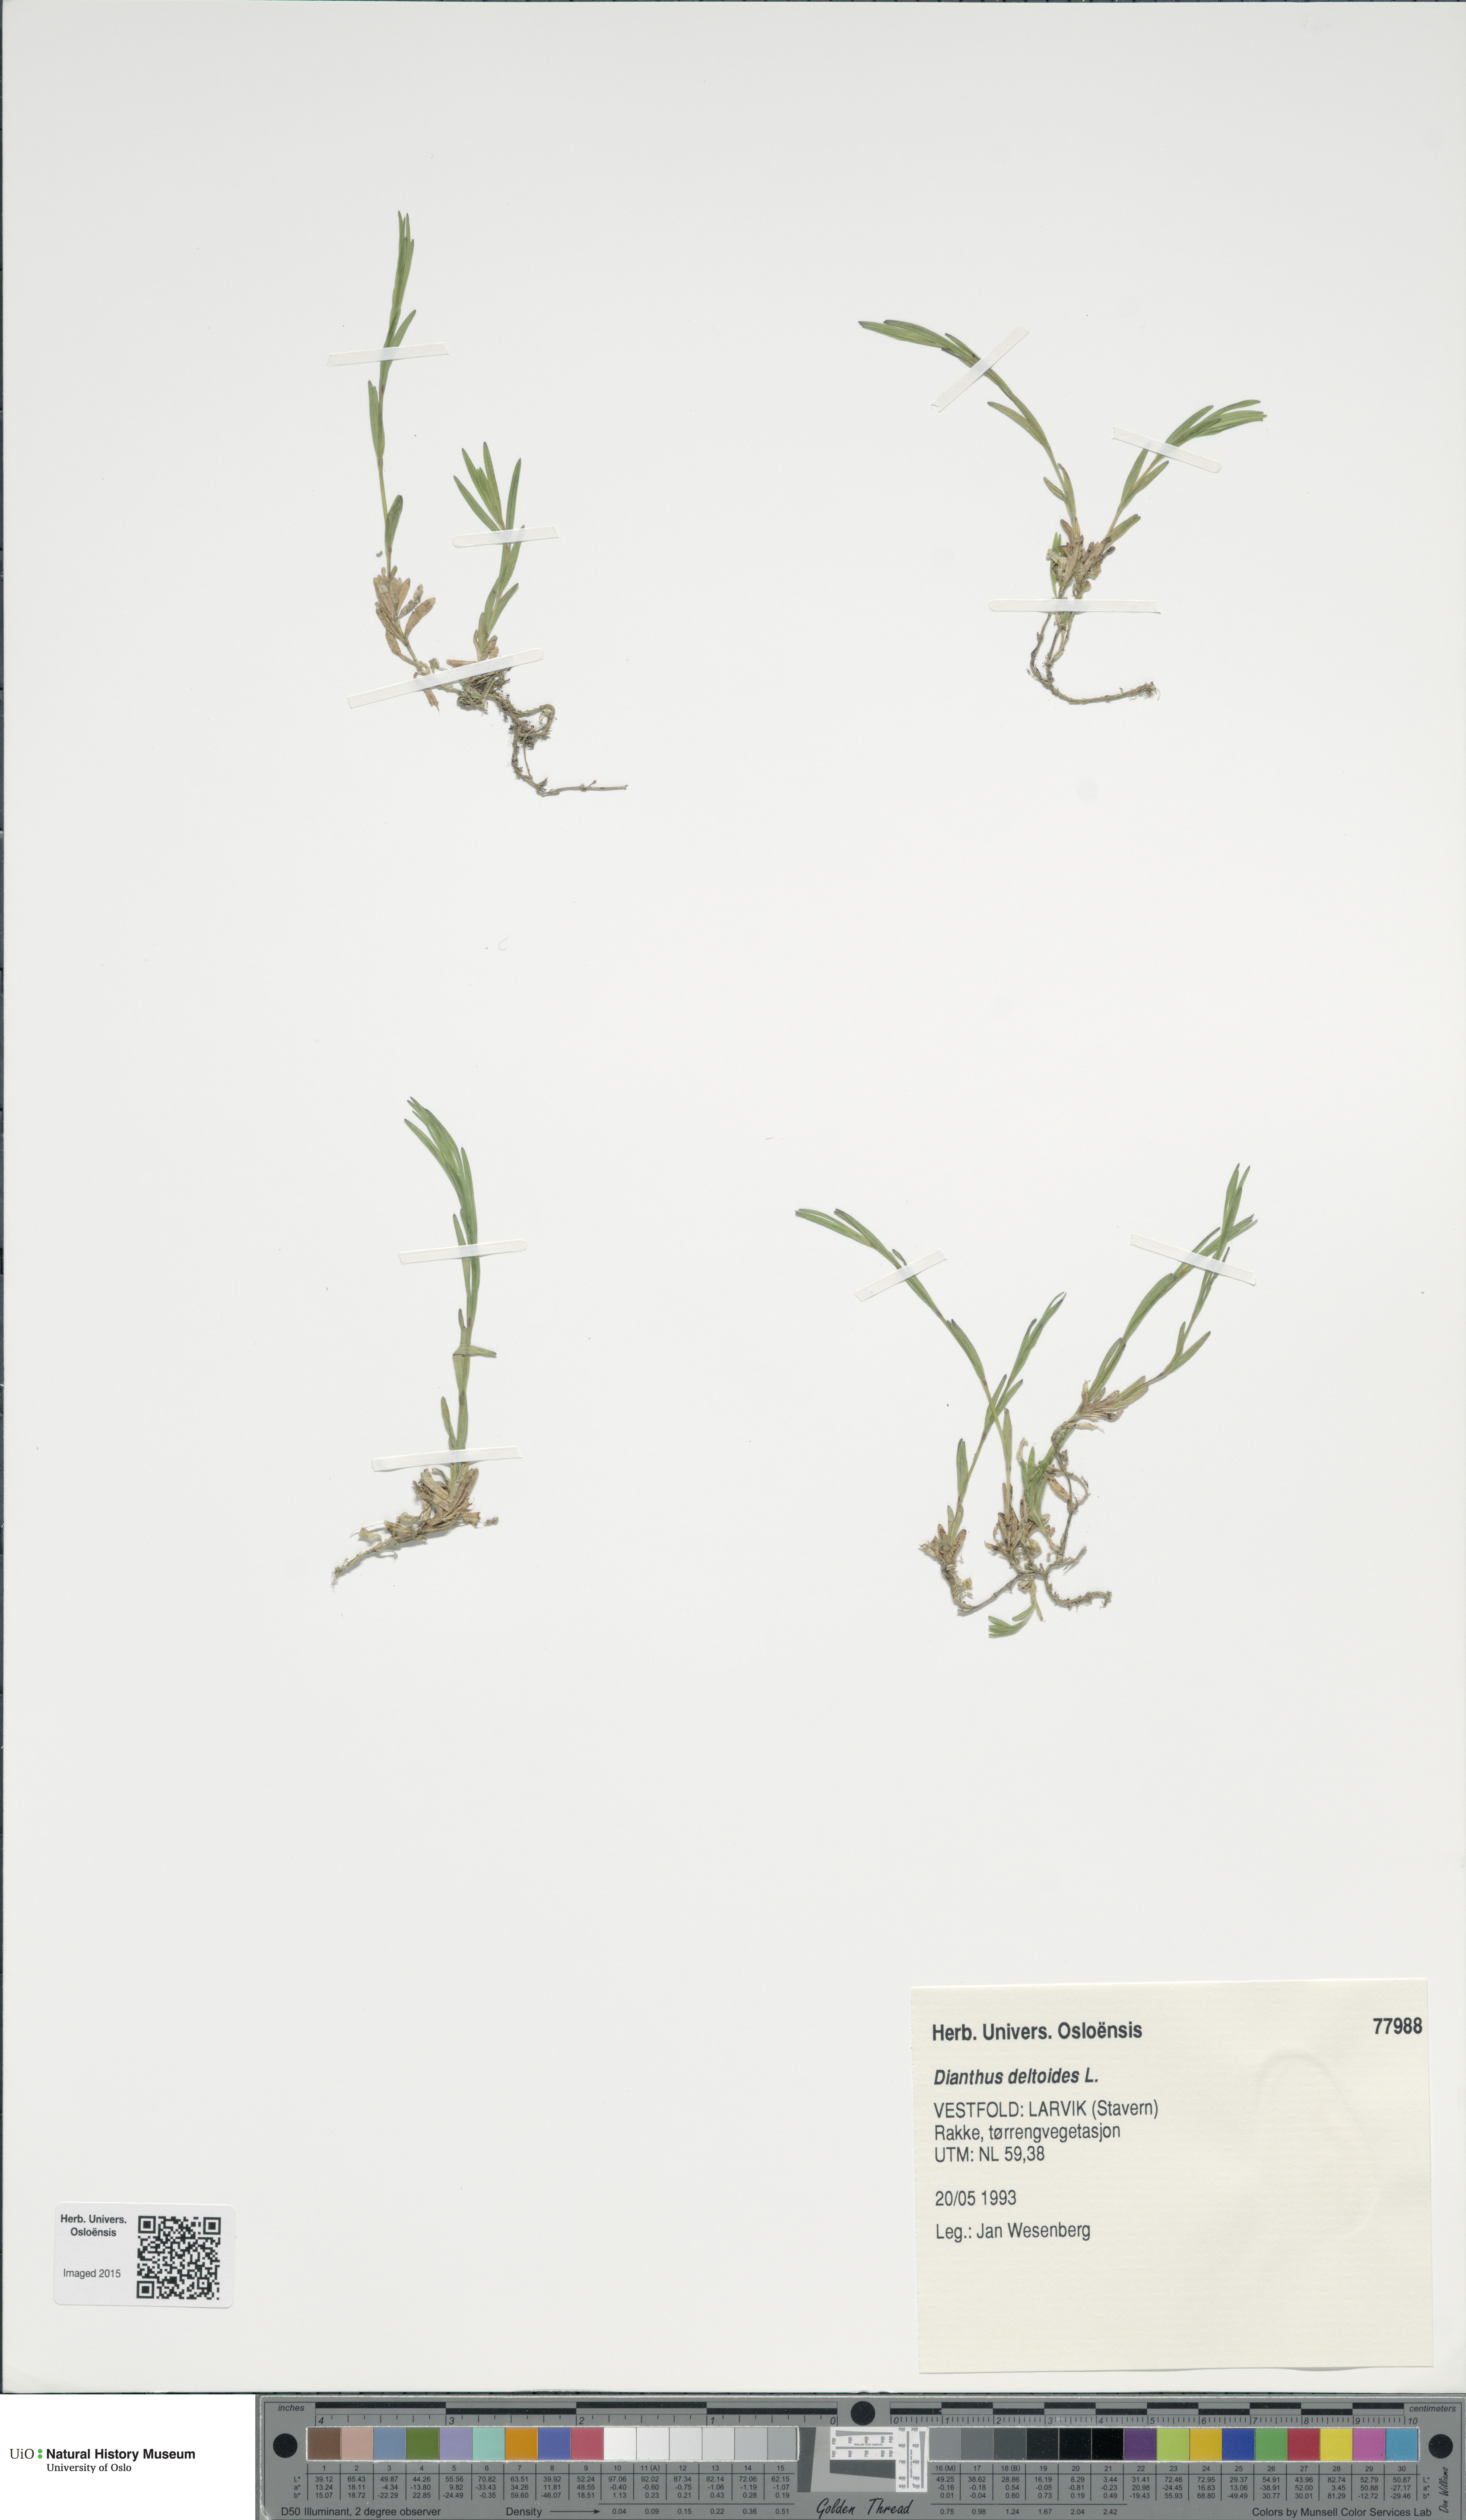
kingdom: Plantae
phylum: Tracheophyta
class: Magnoliopsida
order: Caryophyllales
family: Caryophyllaceae
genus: Dianthus
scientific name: Dianthus deltoides
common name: Maiden pink
